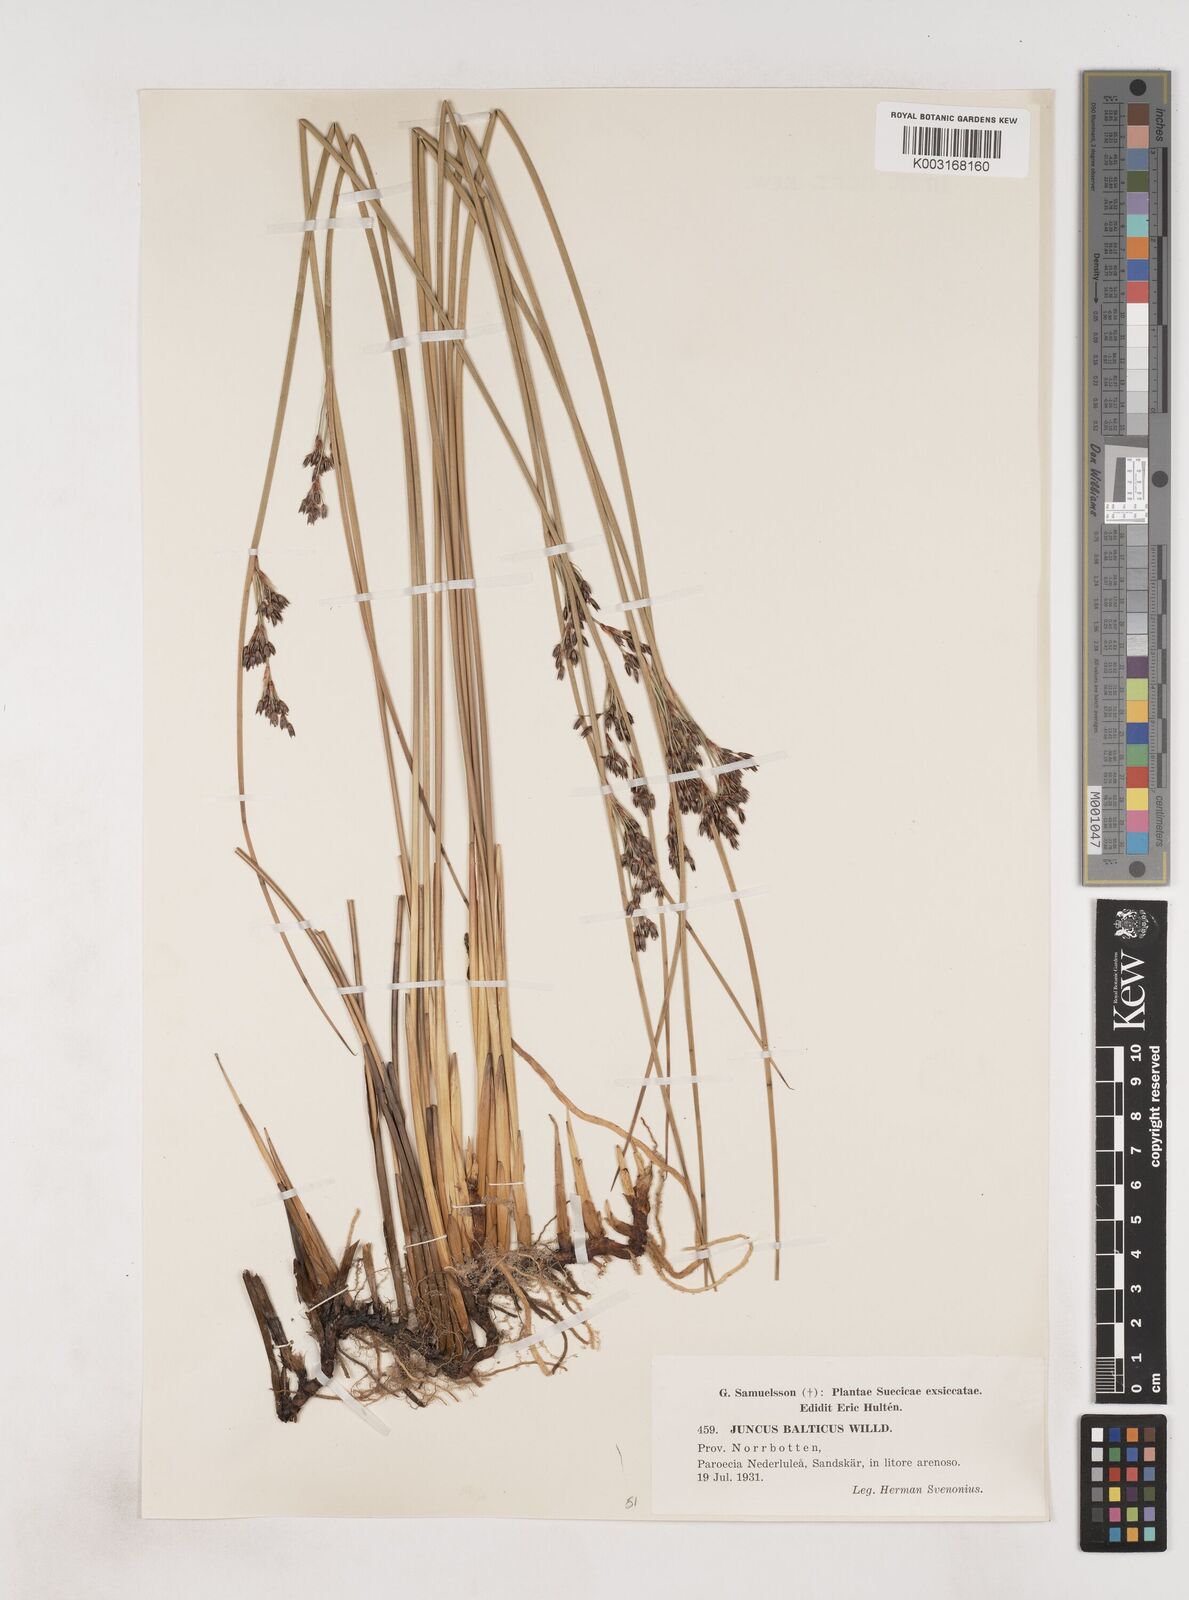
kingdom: Plantae
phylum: Tracheophyta
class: Liliopsida
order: Poales
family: Juncaceae
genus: Juncus
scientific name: Juncus balticus
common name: Baltic rush
